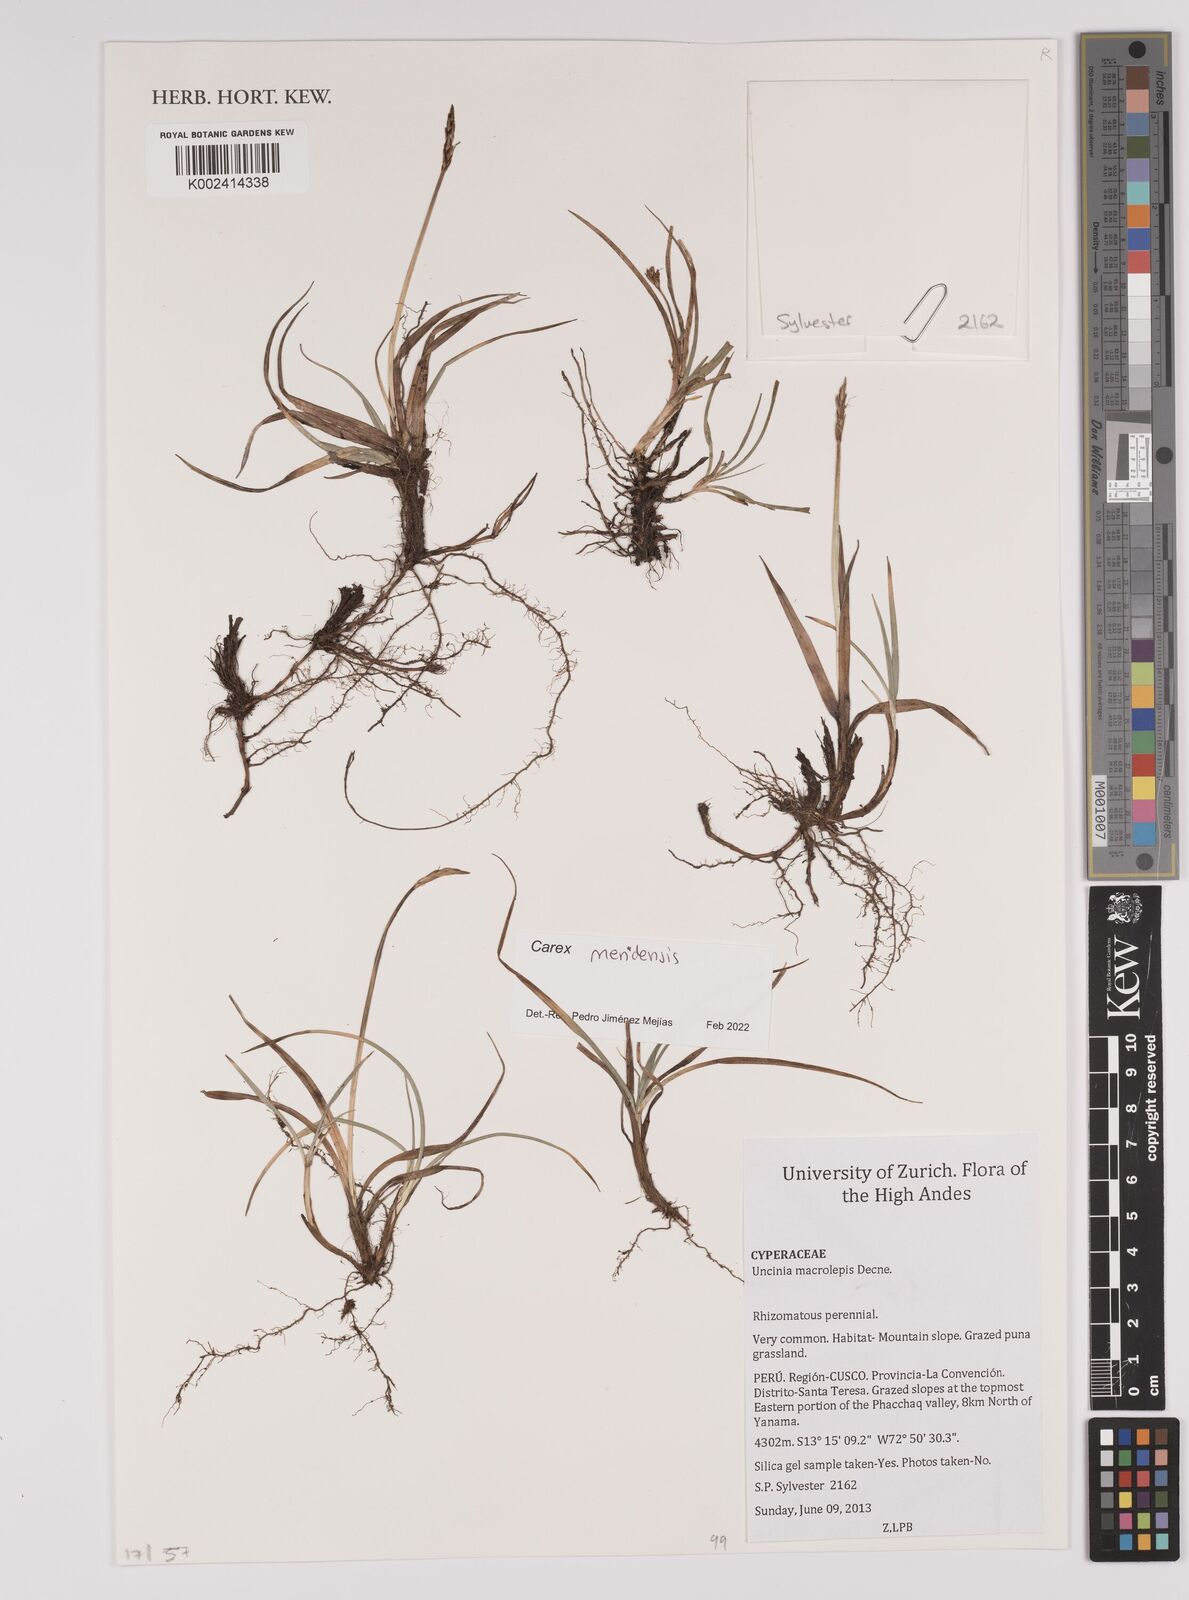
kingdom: Plantae
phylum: Tracheophyta
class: Liliopsida
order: Poales
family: Cyperaceae
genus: Carex
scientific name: Carex meridensis
